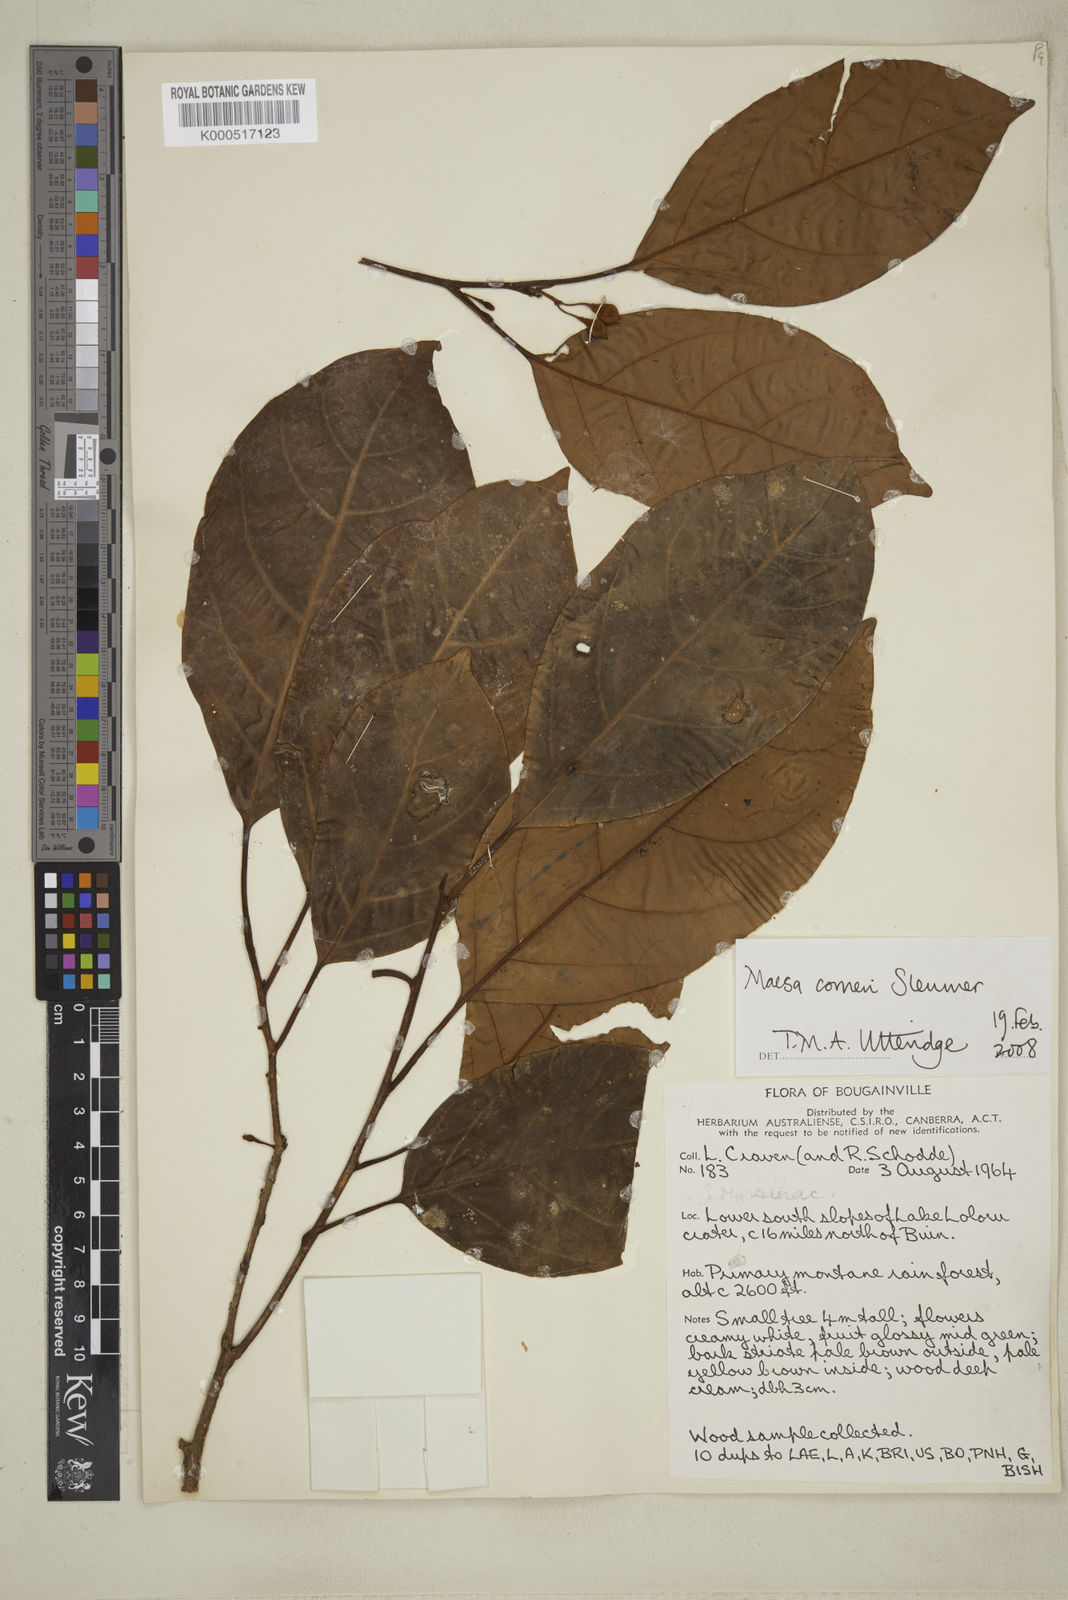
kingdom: Plantae
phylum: Tracheophyta
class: Magnoliopsida
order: Ericales
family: Primulaceae
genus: Maesa
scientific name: Maesa corneri
